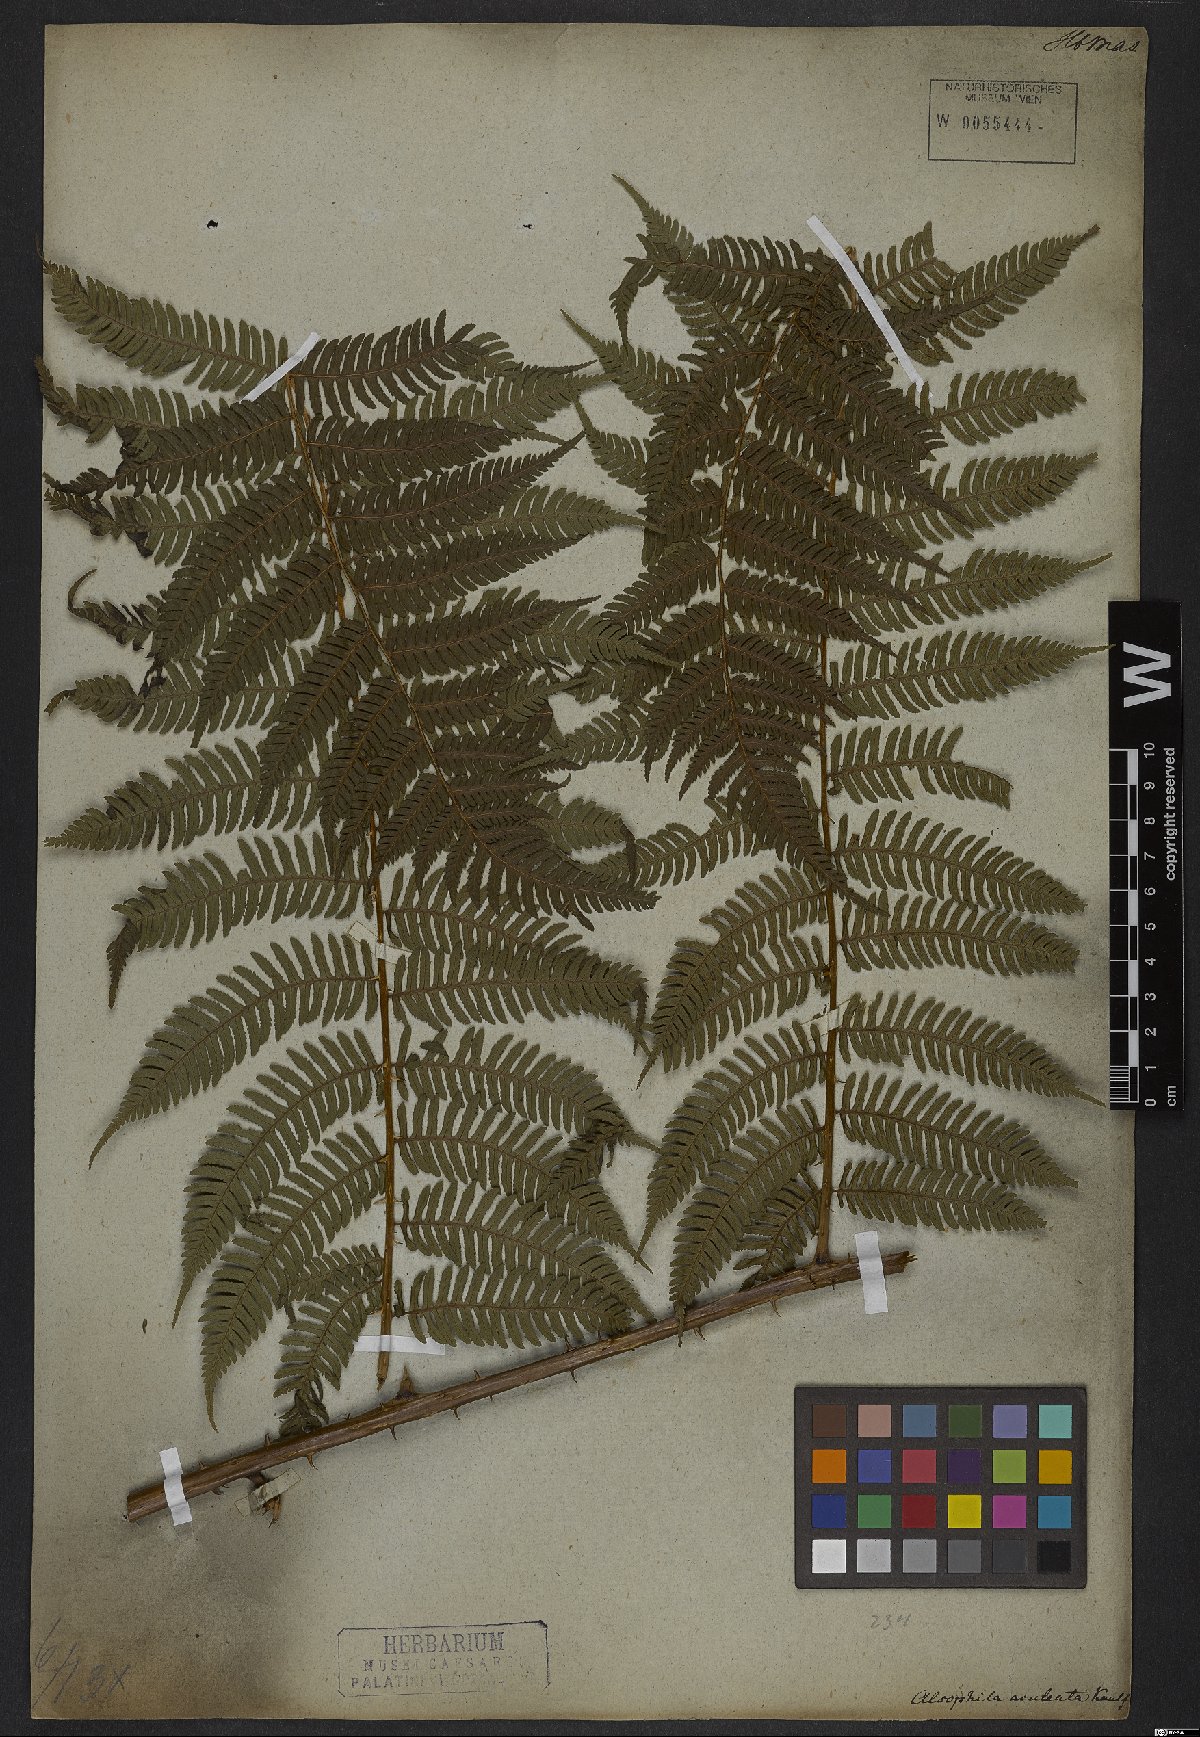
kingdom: Plantae
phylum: Tracheophyta
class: Polypodiopsida
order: Cyatheales
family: Cyatheaceae
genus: Cyathea
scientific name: Cyathea microdonta
